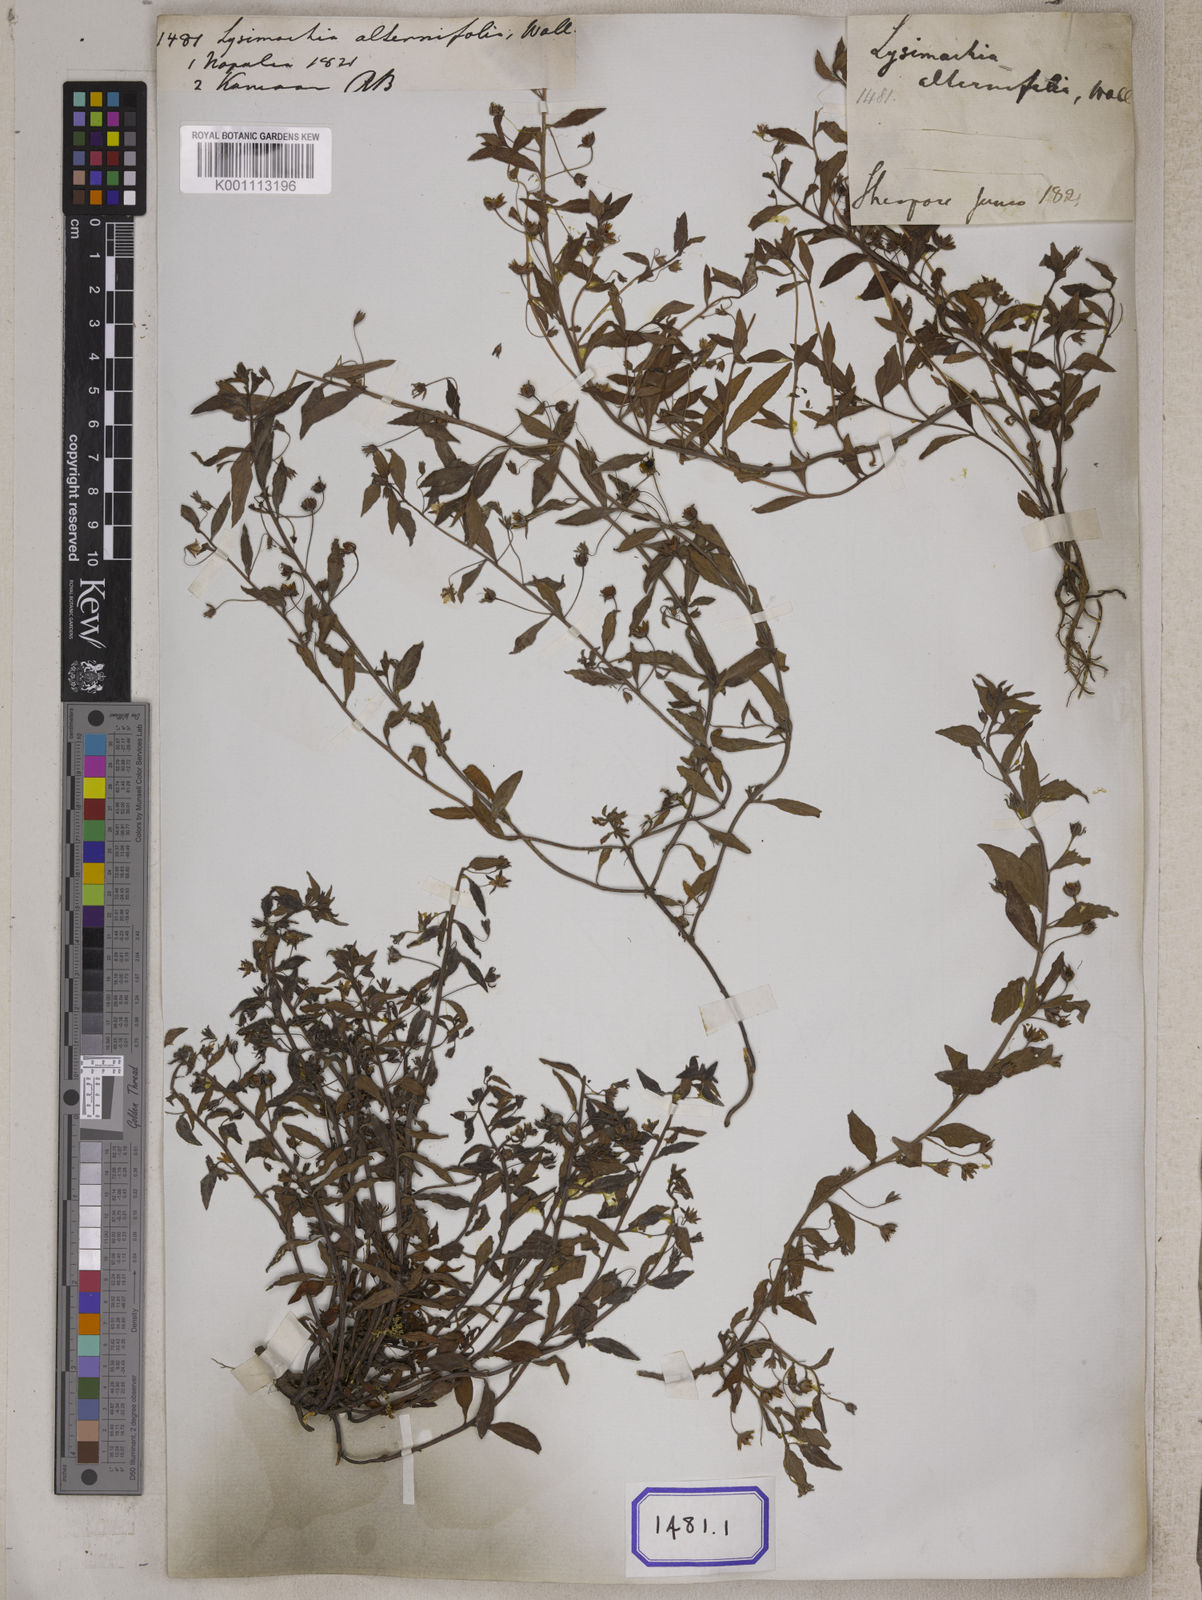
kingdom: Plantae
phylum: Tracheophyta
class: Magnoliopsida
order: Ericales
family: Primulaceae
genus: Lysimachia
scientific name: Lysimachia tetragona
